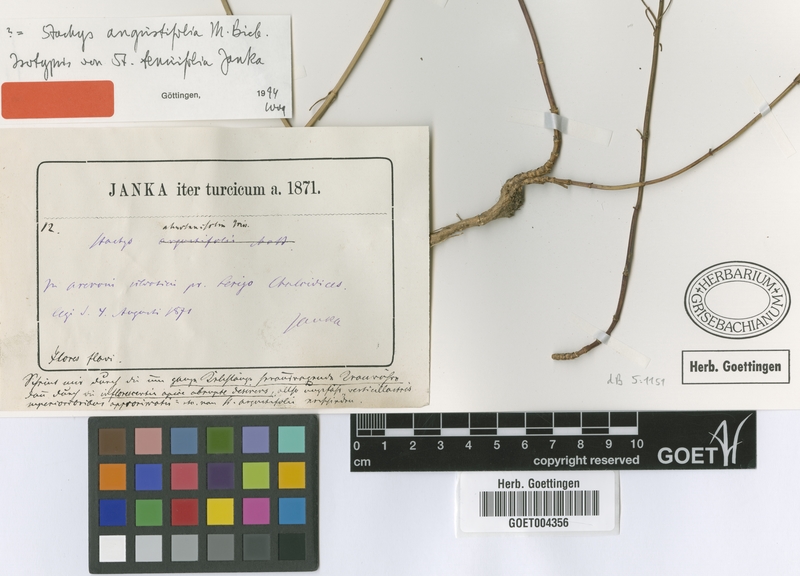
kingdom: Plantae
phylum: Tracheophyta
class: Magnoliopsida
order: Lamiales
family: Lamiaceae
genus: Stachys
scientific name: Stachys angustifolia
